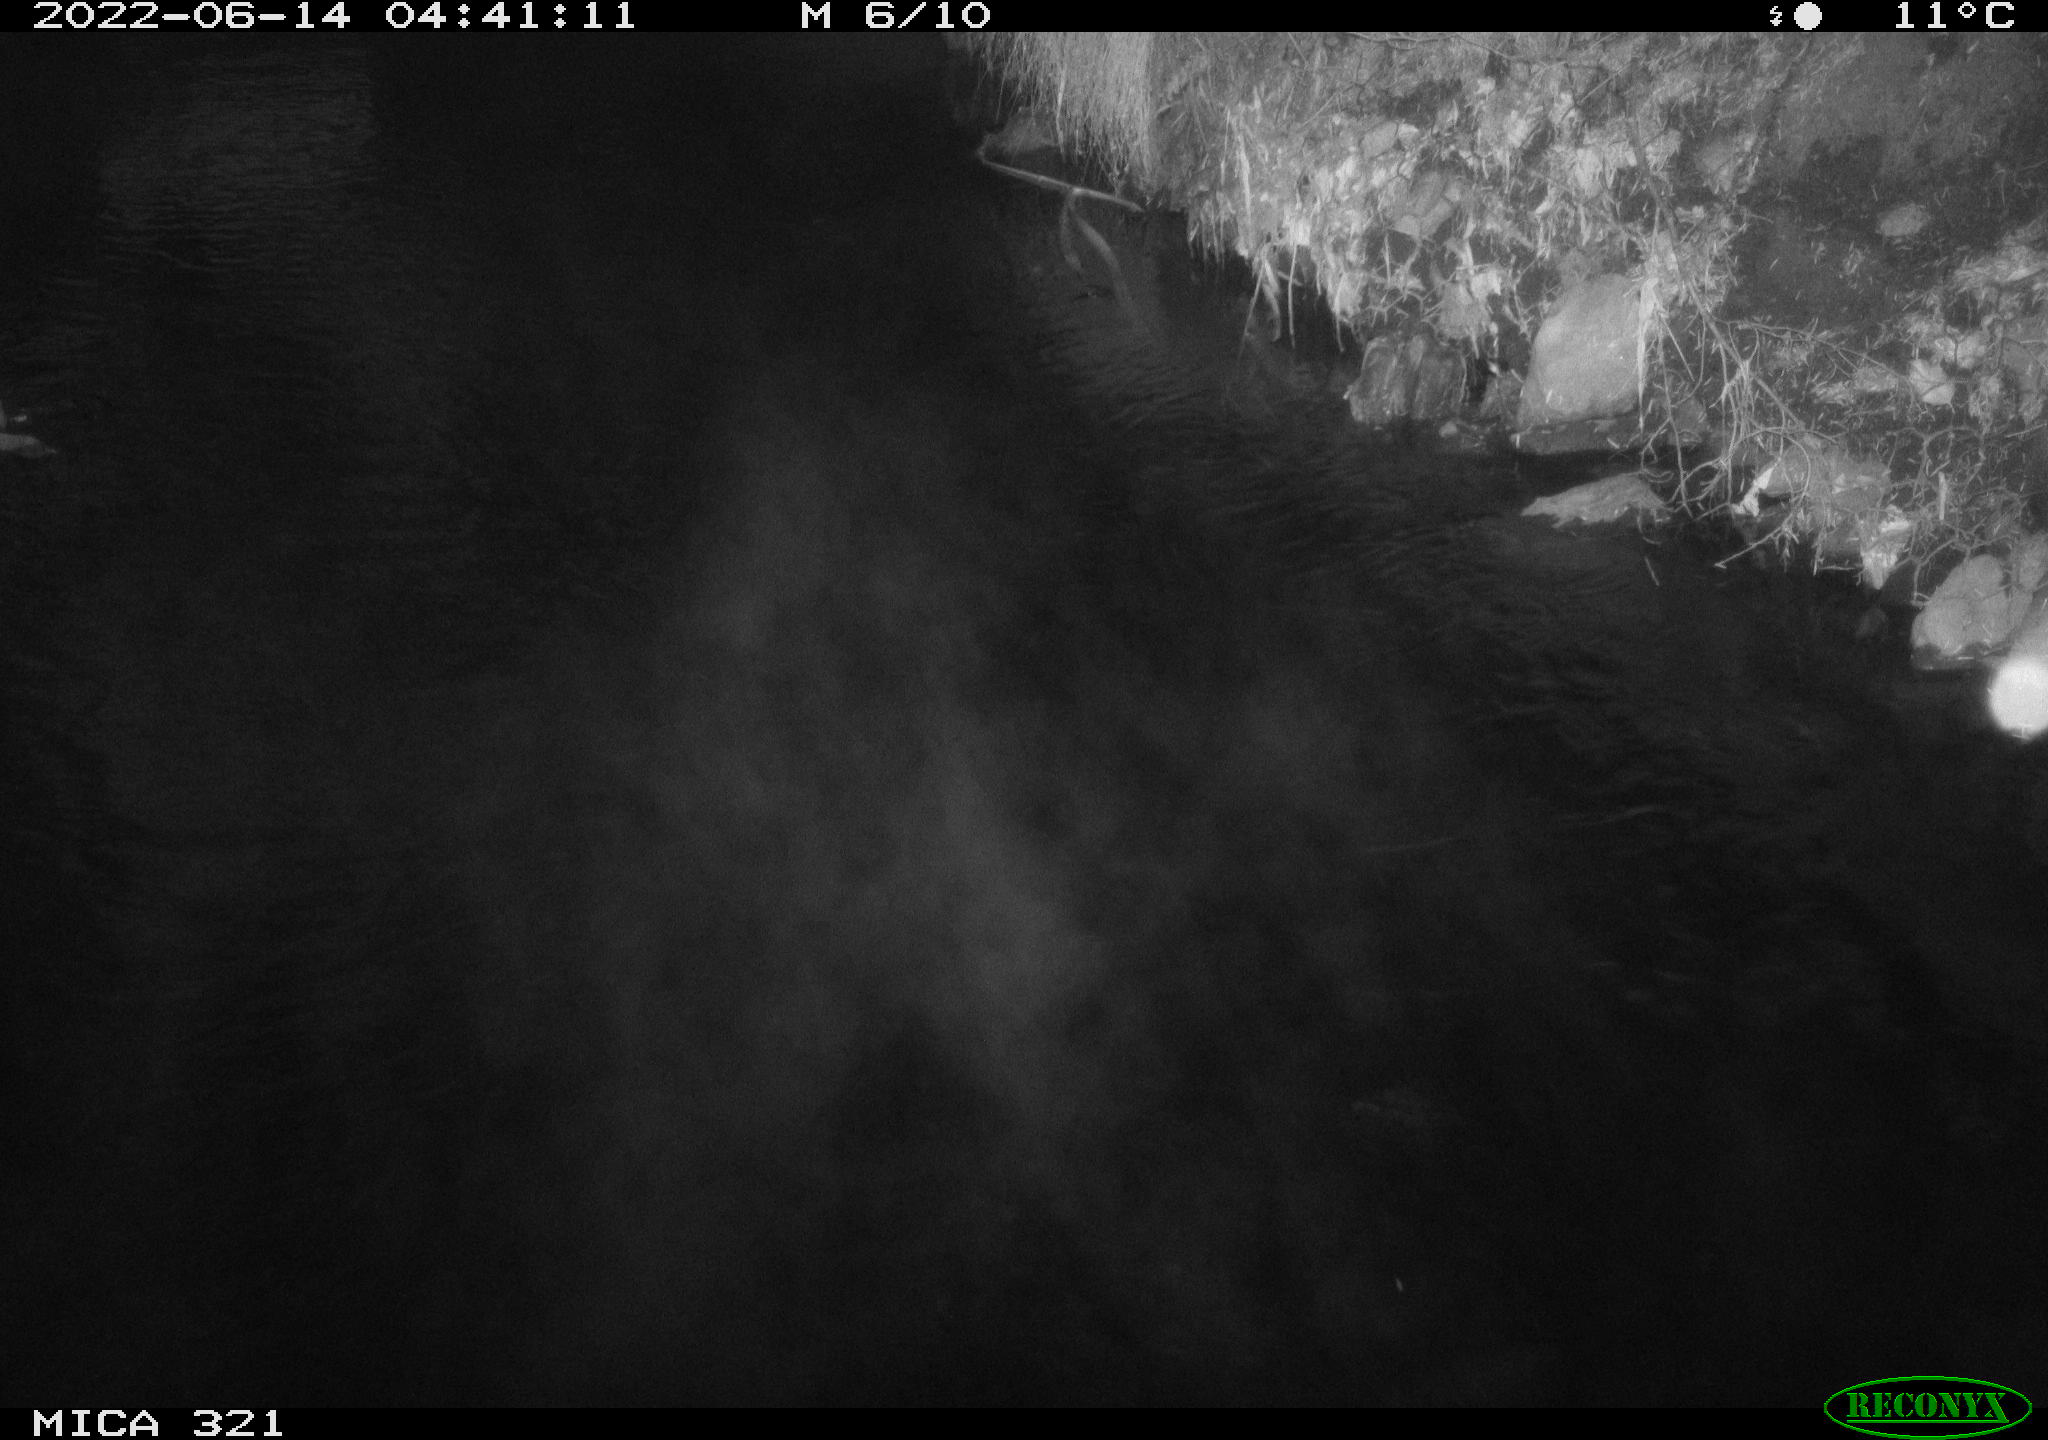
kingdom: Animalia
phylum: Chordata
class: Aves
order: Anseriformes
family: Anatidae
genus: Anas
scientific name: Anas platyrhynchos
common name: Mallard
